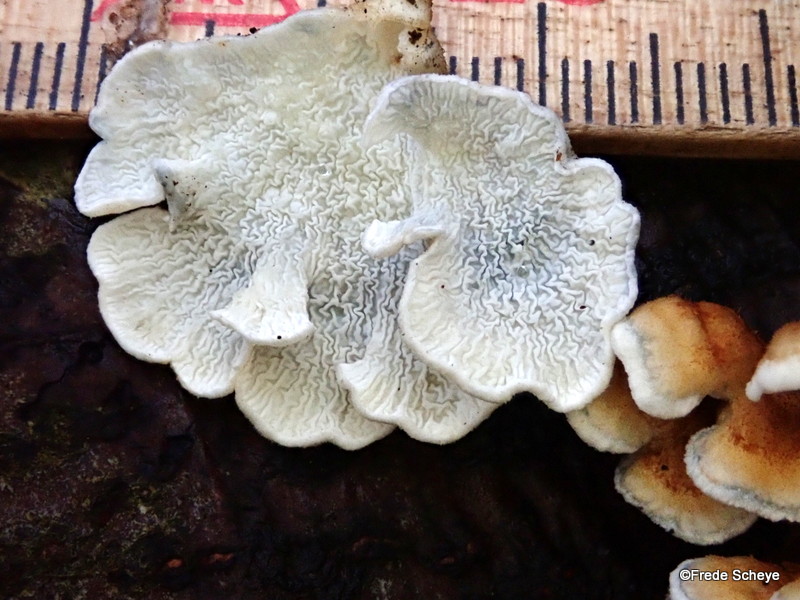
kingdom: Fungi
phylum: Basidiomycota
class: Agaricomycetes
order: Amylocorticiales
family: Amylocorticiaceae
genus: Plicaturopsis
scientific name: Plicaturopsis crispa
